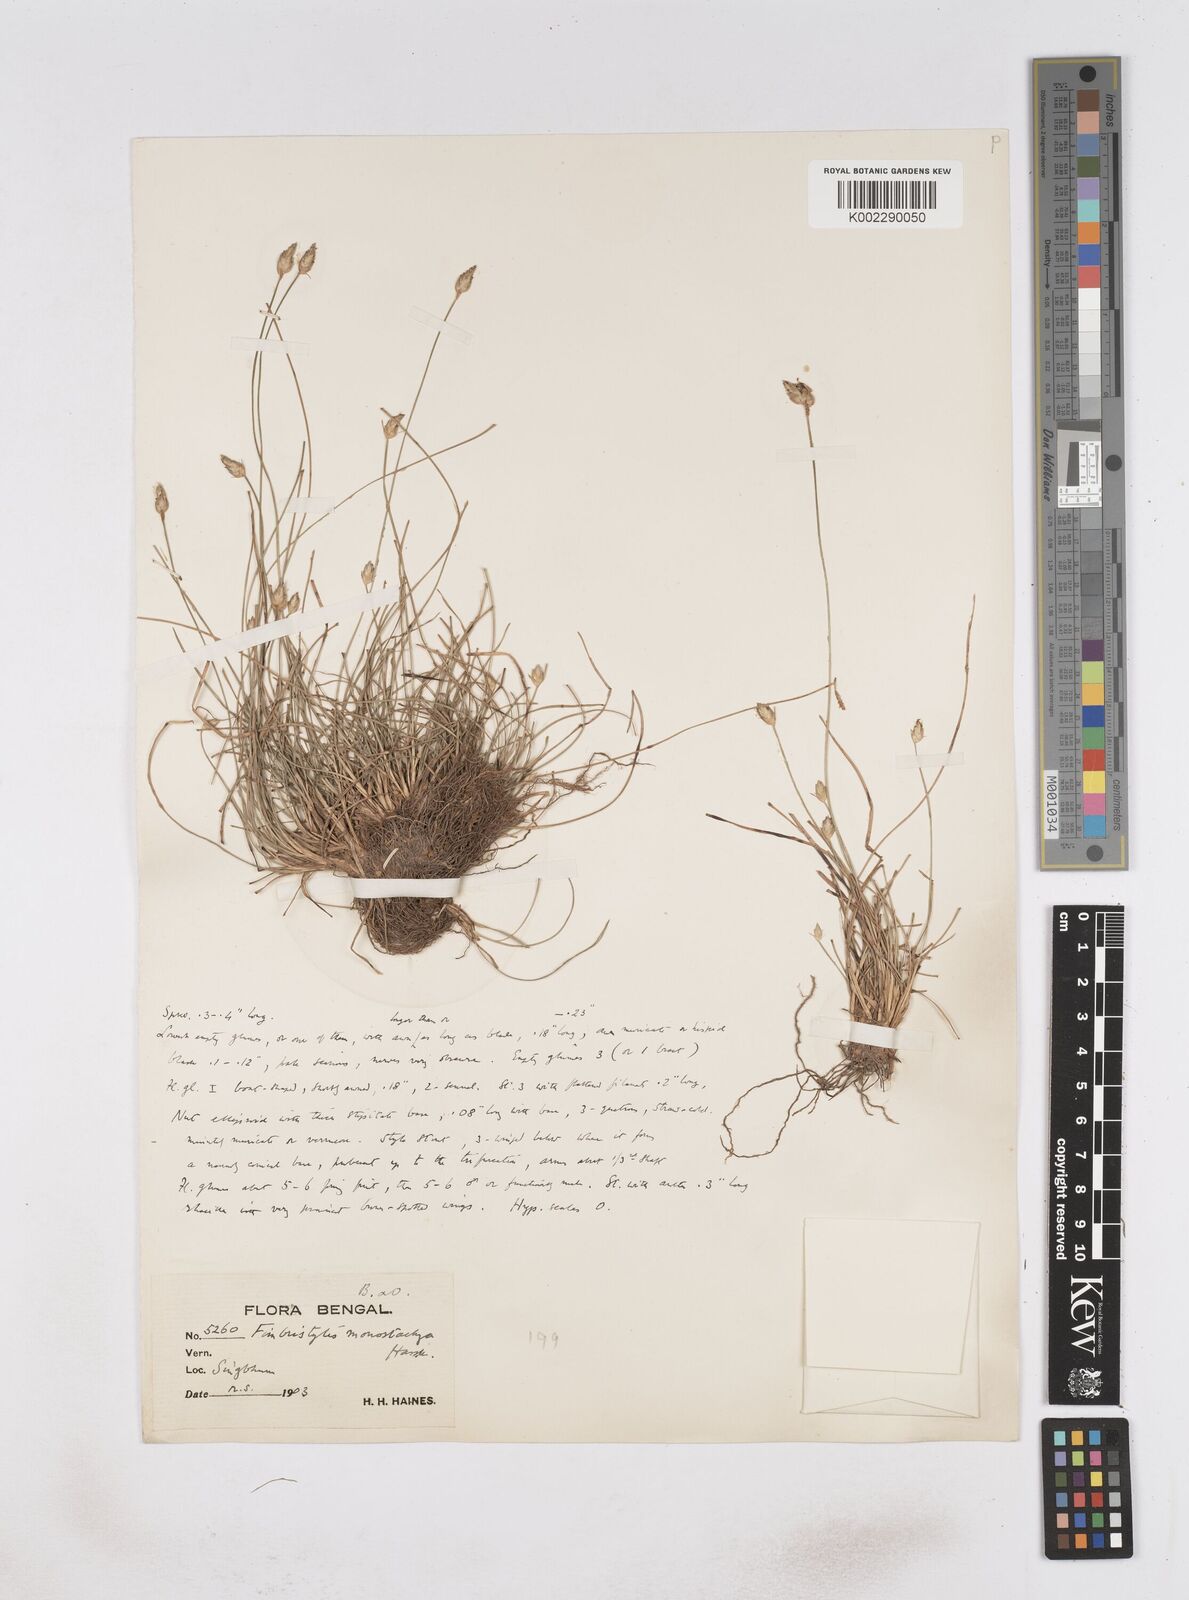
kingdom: Plantae
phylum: Tracheophyta
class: Liliopsida
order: Poales
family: Cyperaceae
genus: Abildgaardia
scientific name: Abildgaardia ovata
